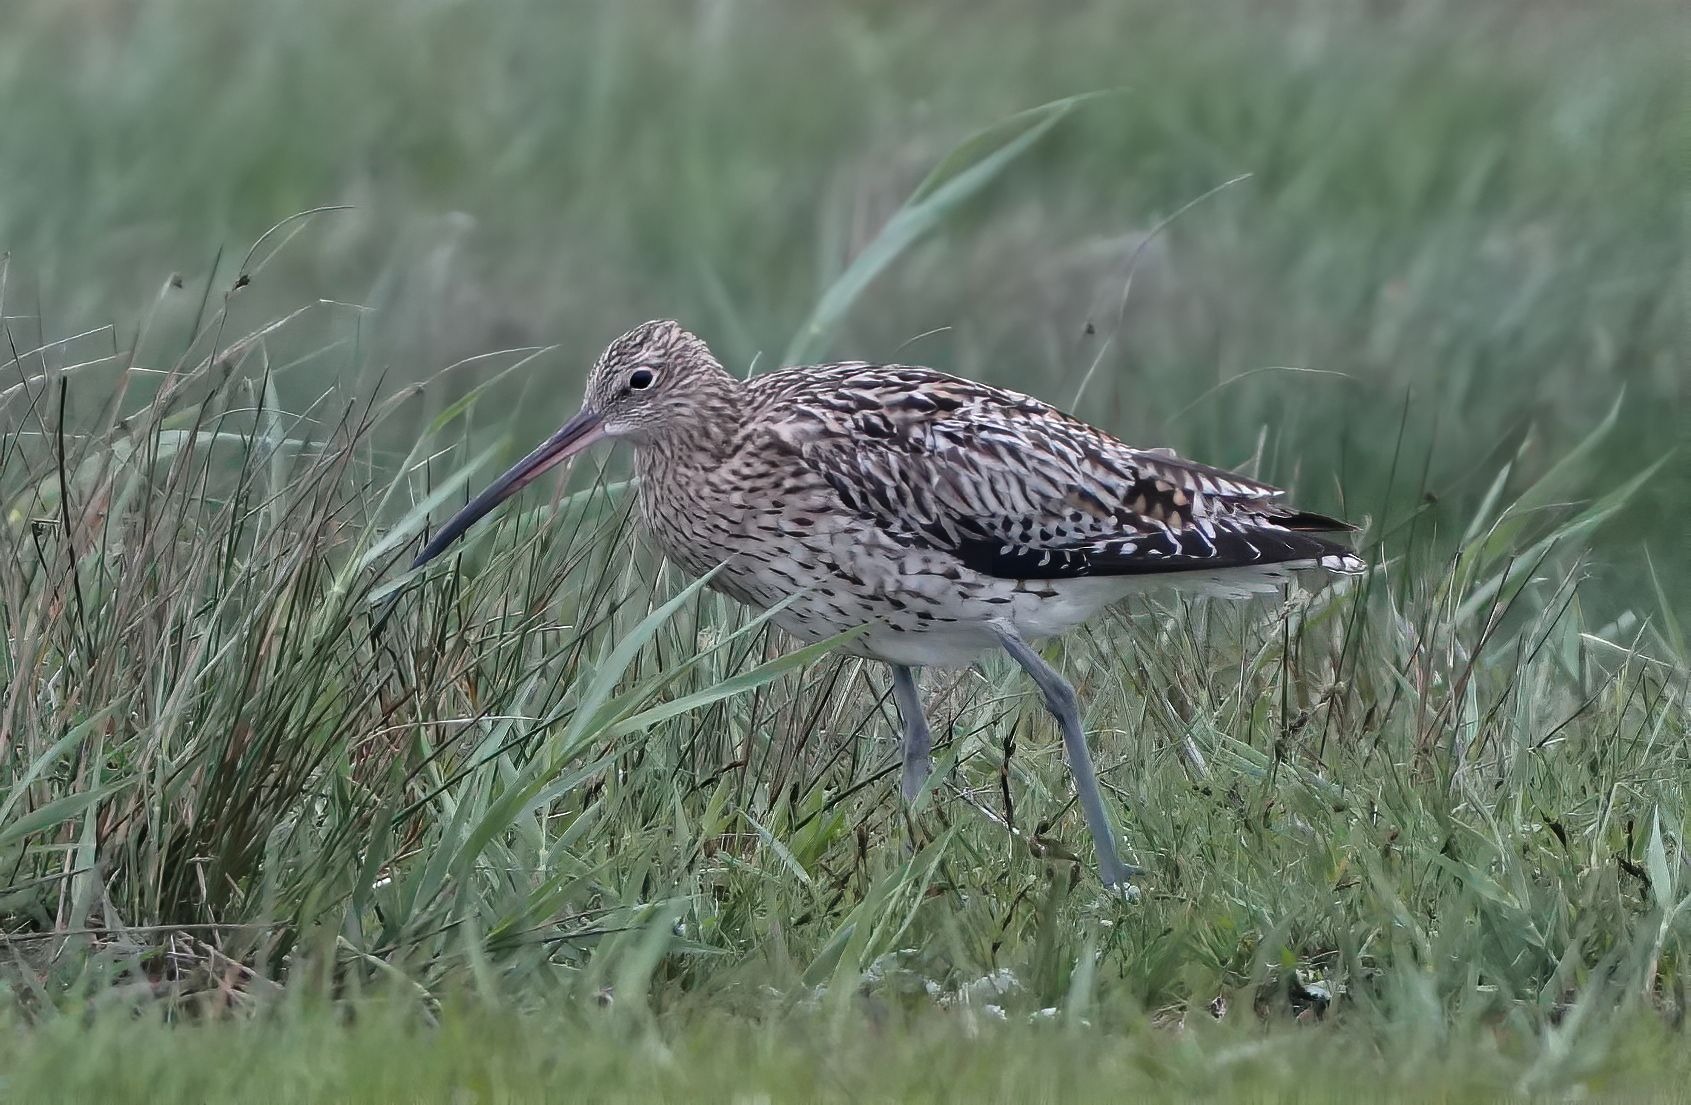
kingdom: Animalia
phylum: Chordata
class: Aves
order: Charadriiformes
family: Scolopacidae
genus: Numenius
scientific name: Numenius arquata
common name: Storspove
